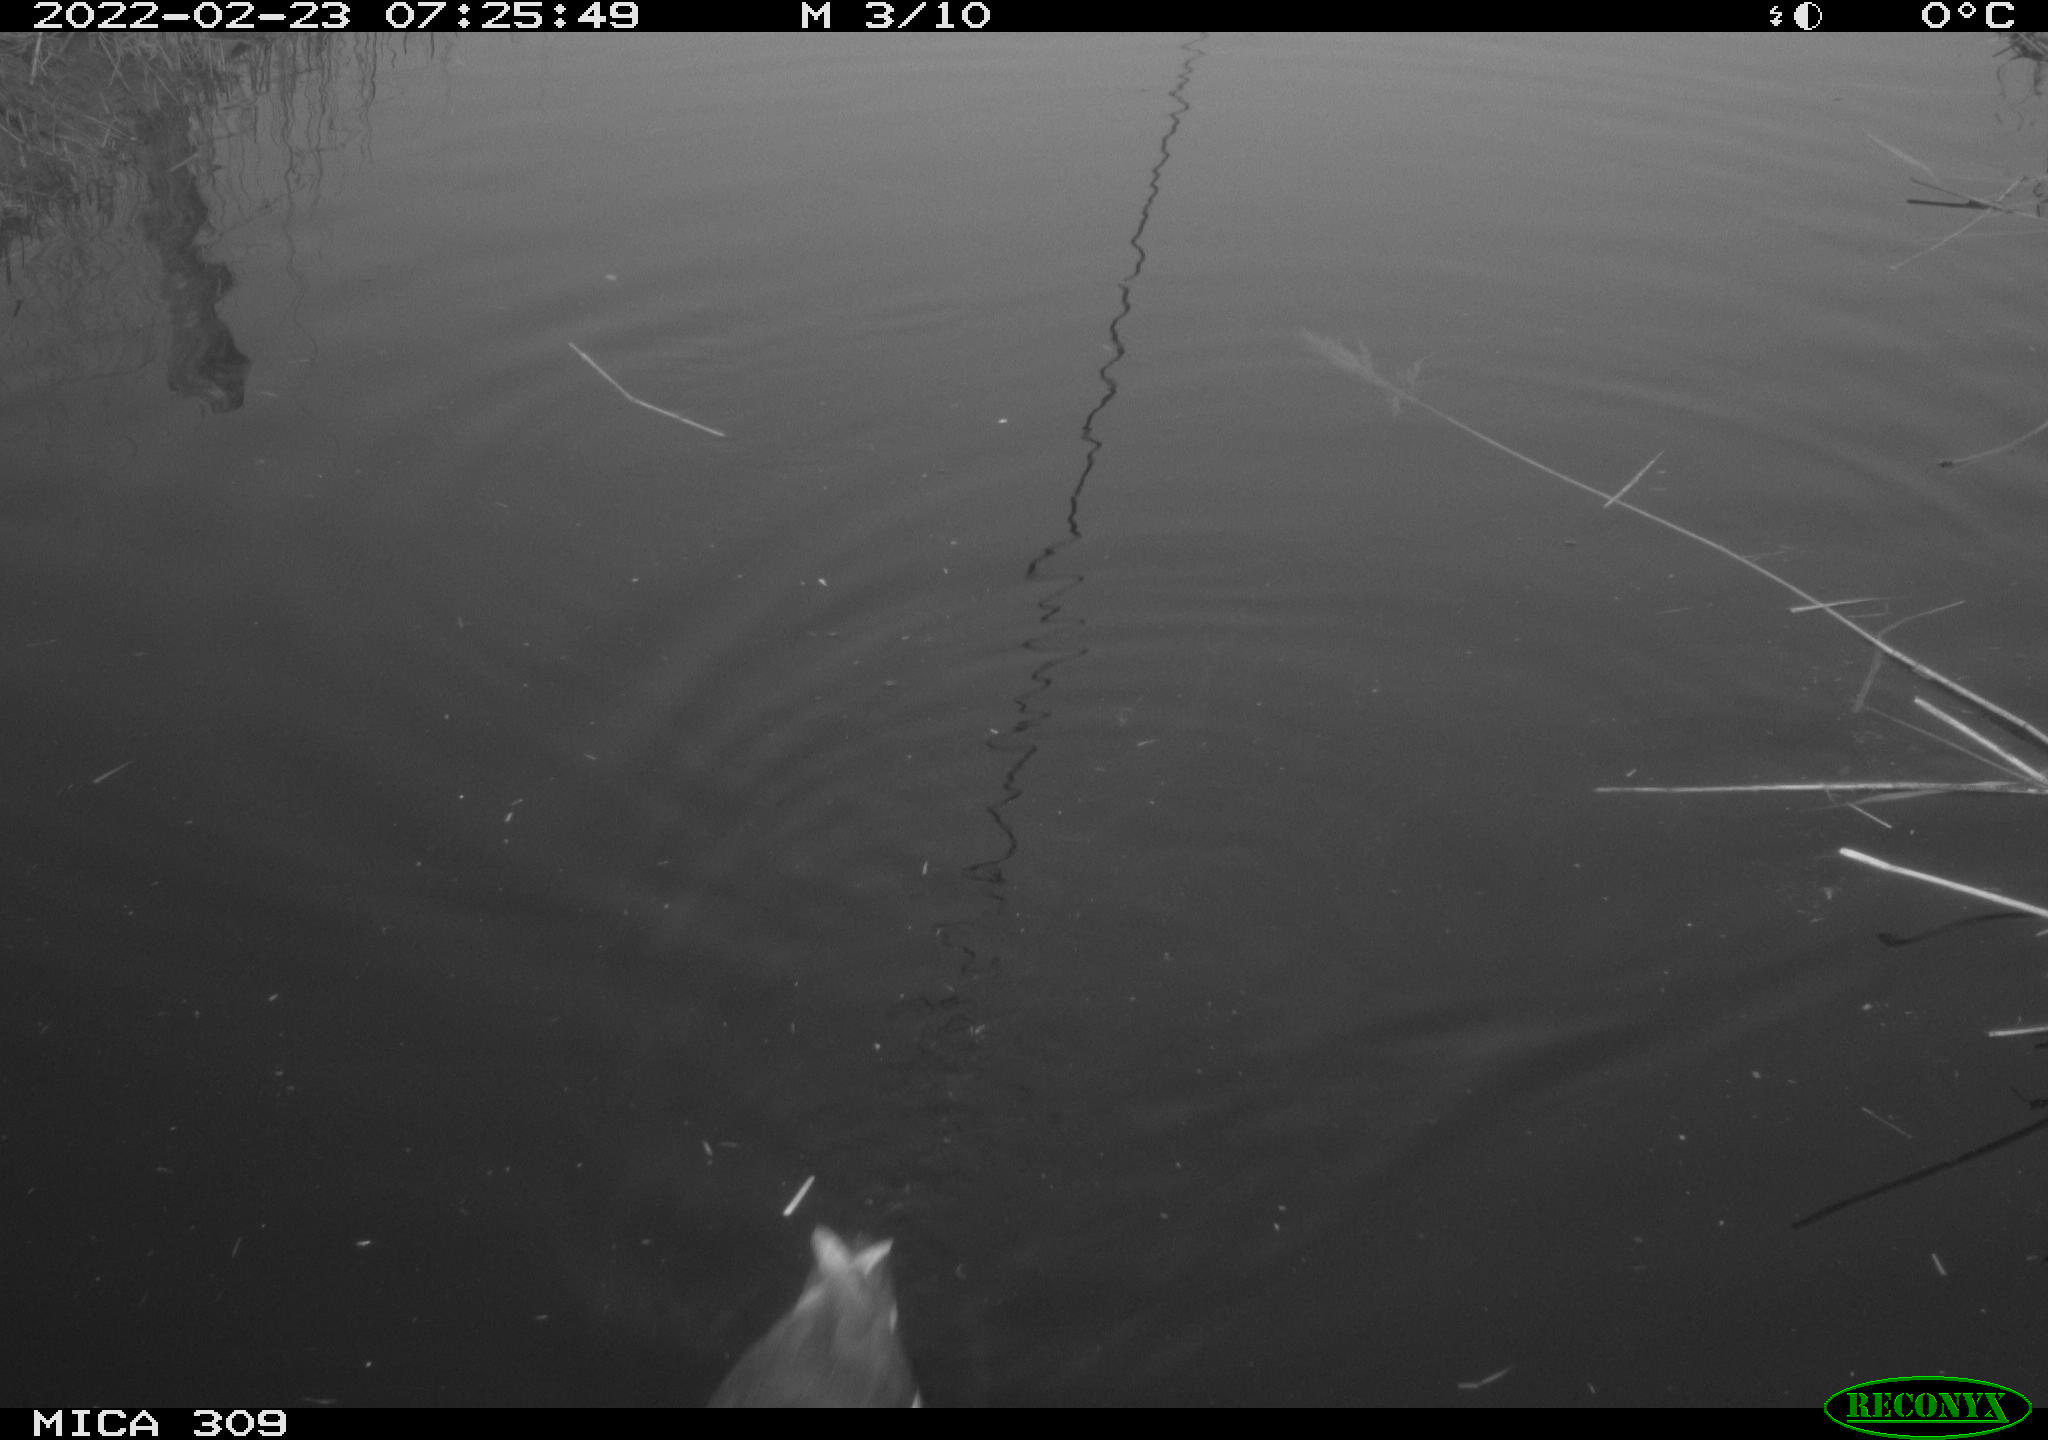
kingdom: Animalia
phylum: Chordata
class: Aves
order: Gruiformes
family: Rallidae
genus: Gallinula
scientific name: Gallinula chloropus
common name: Common moorhen
